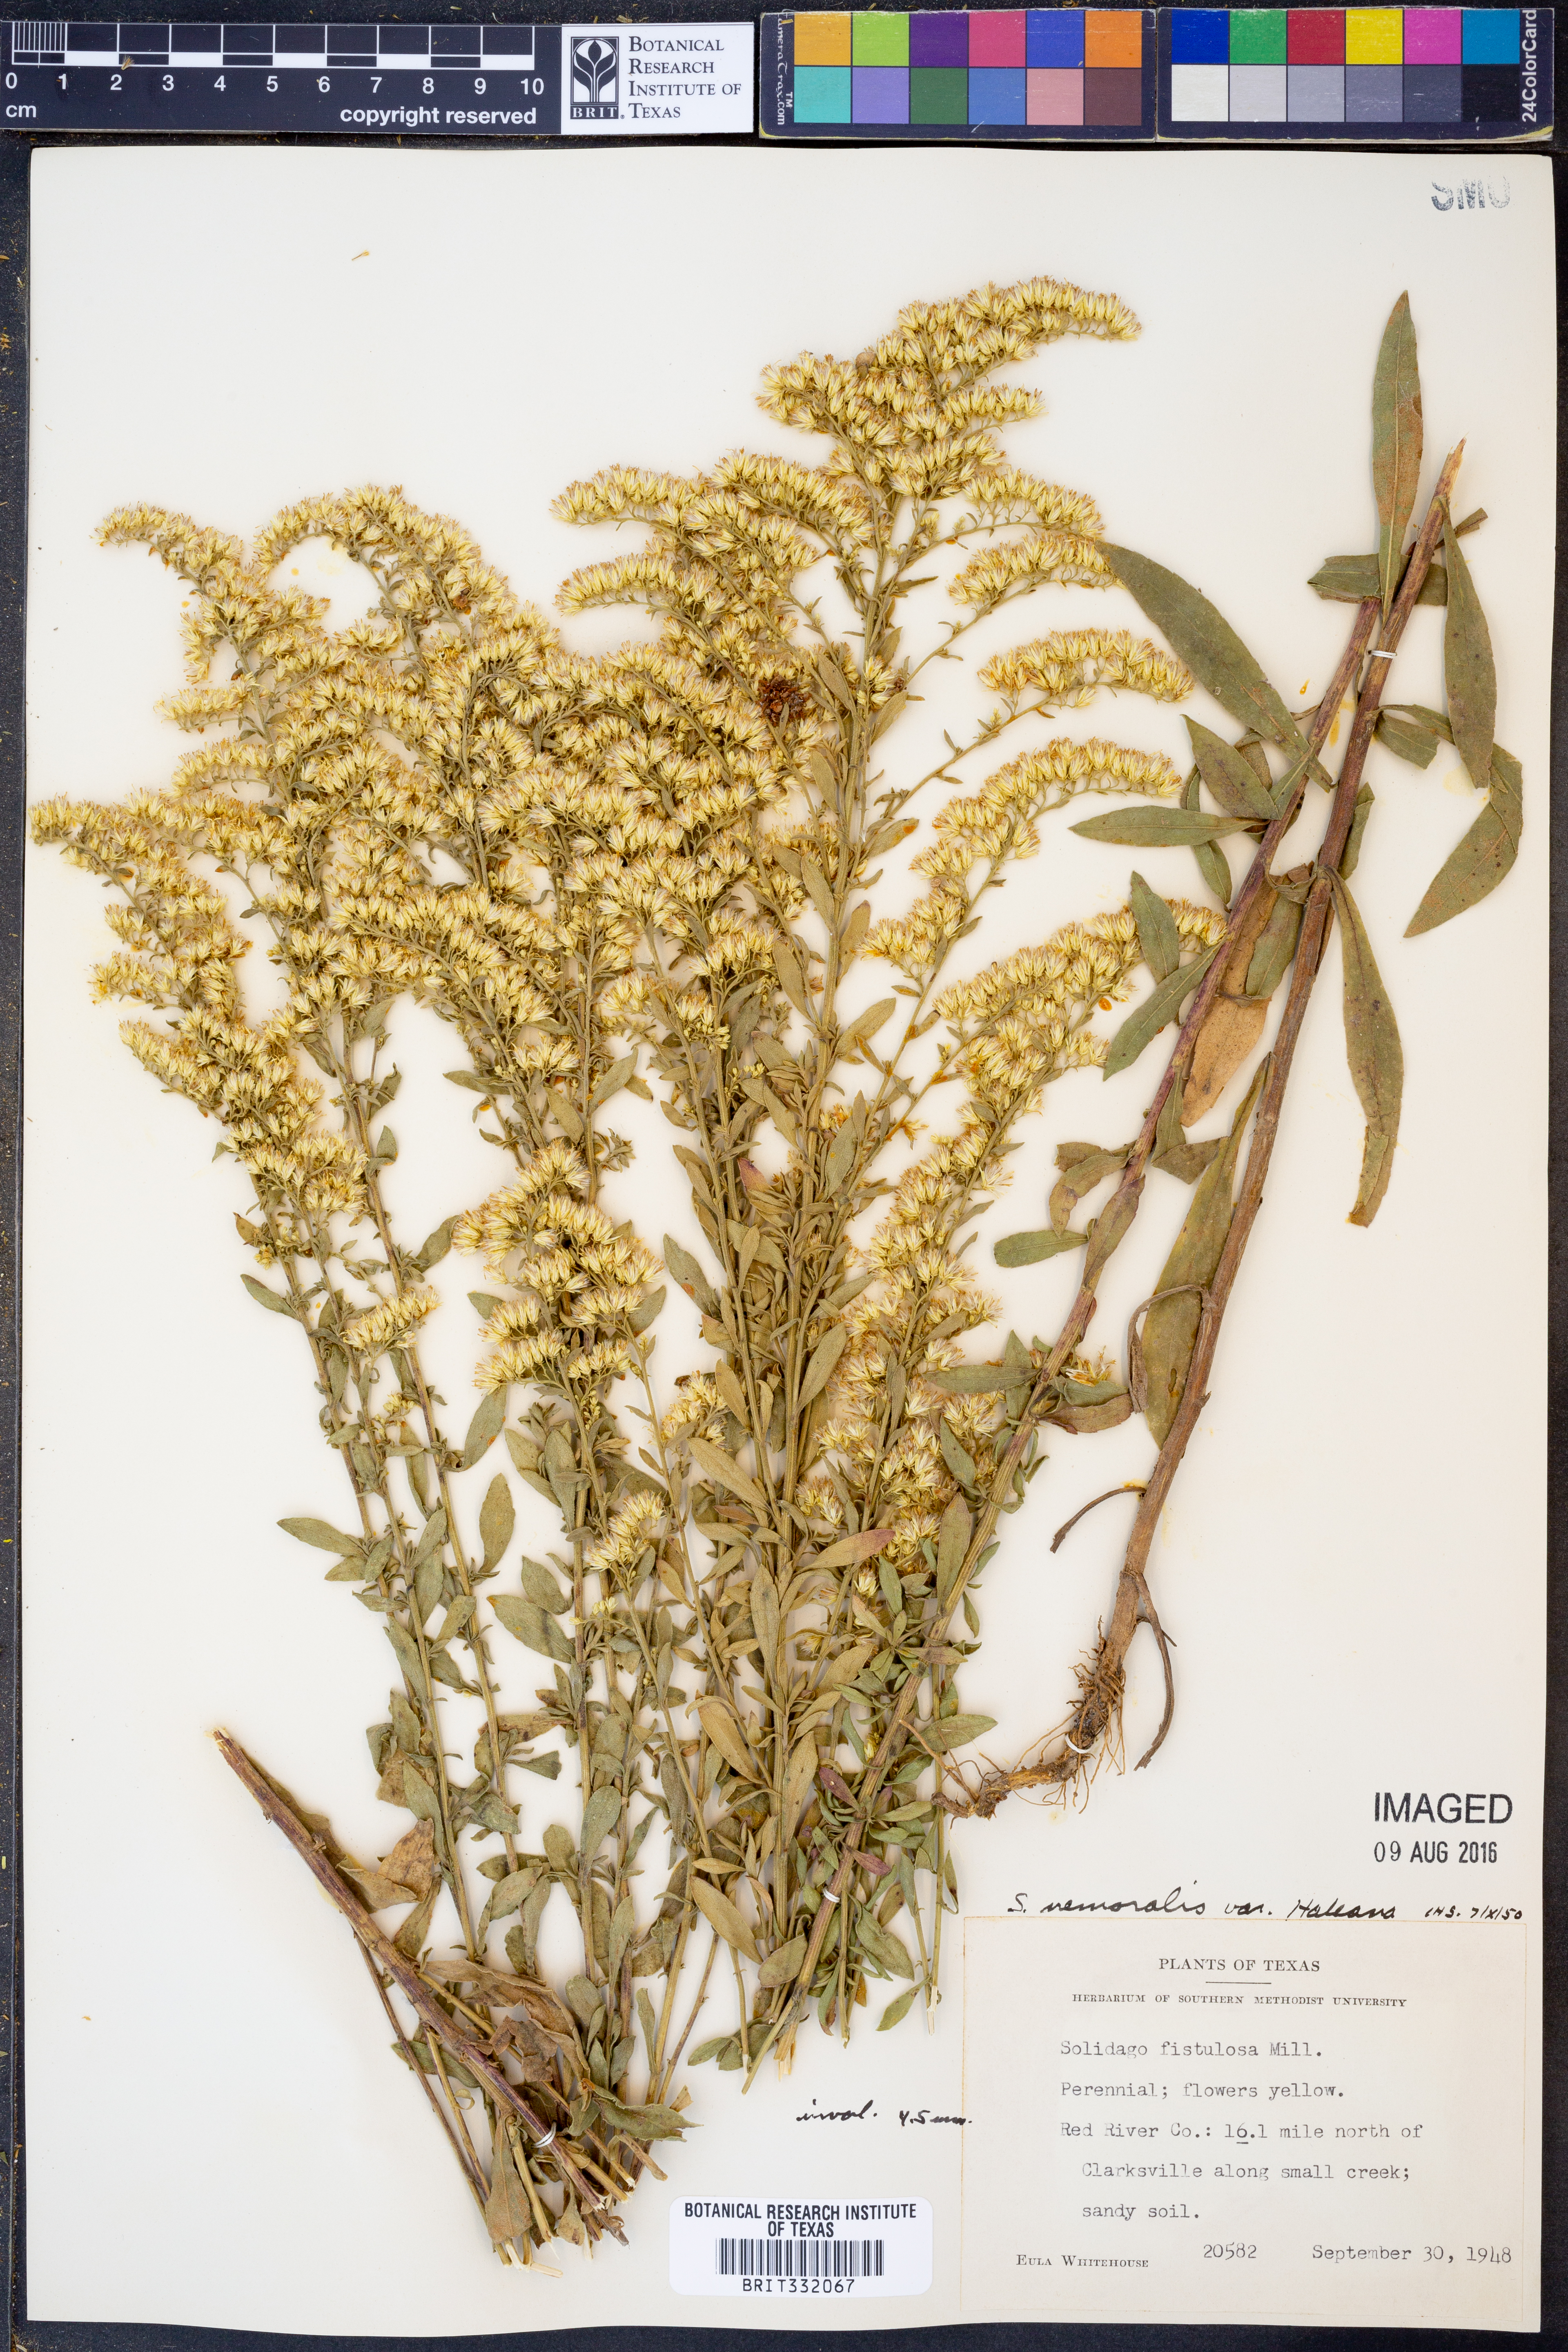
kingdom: Plantae
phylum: Tracheophyta
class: Magnoliopsida
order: Asterales
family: Asteraceae
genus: Solidago
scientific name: Solidago nemoralis
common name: Grey goldenrod
